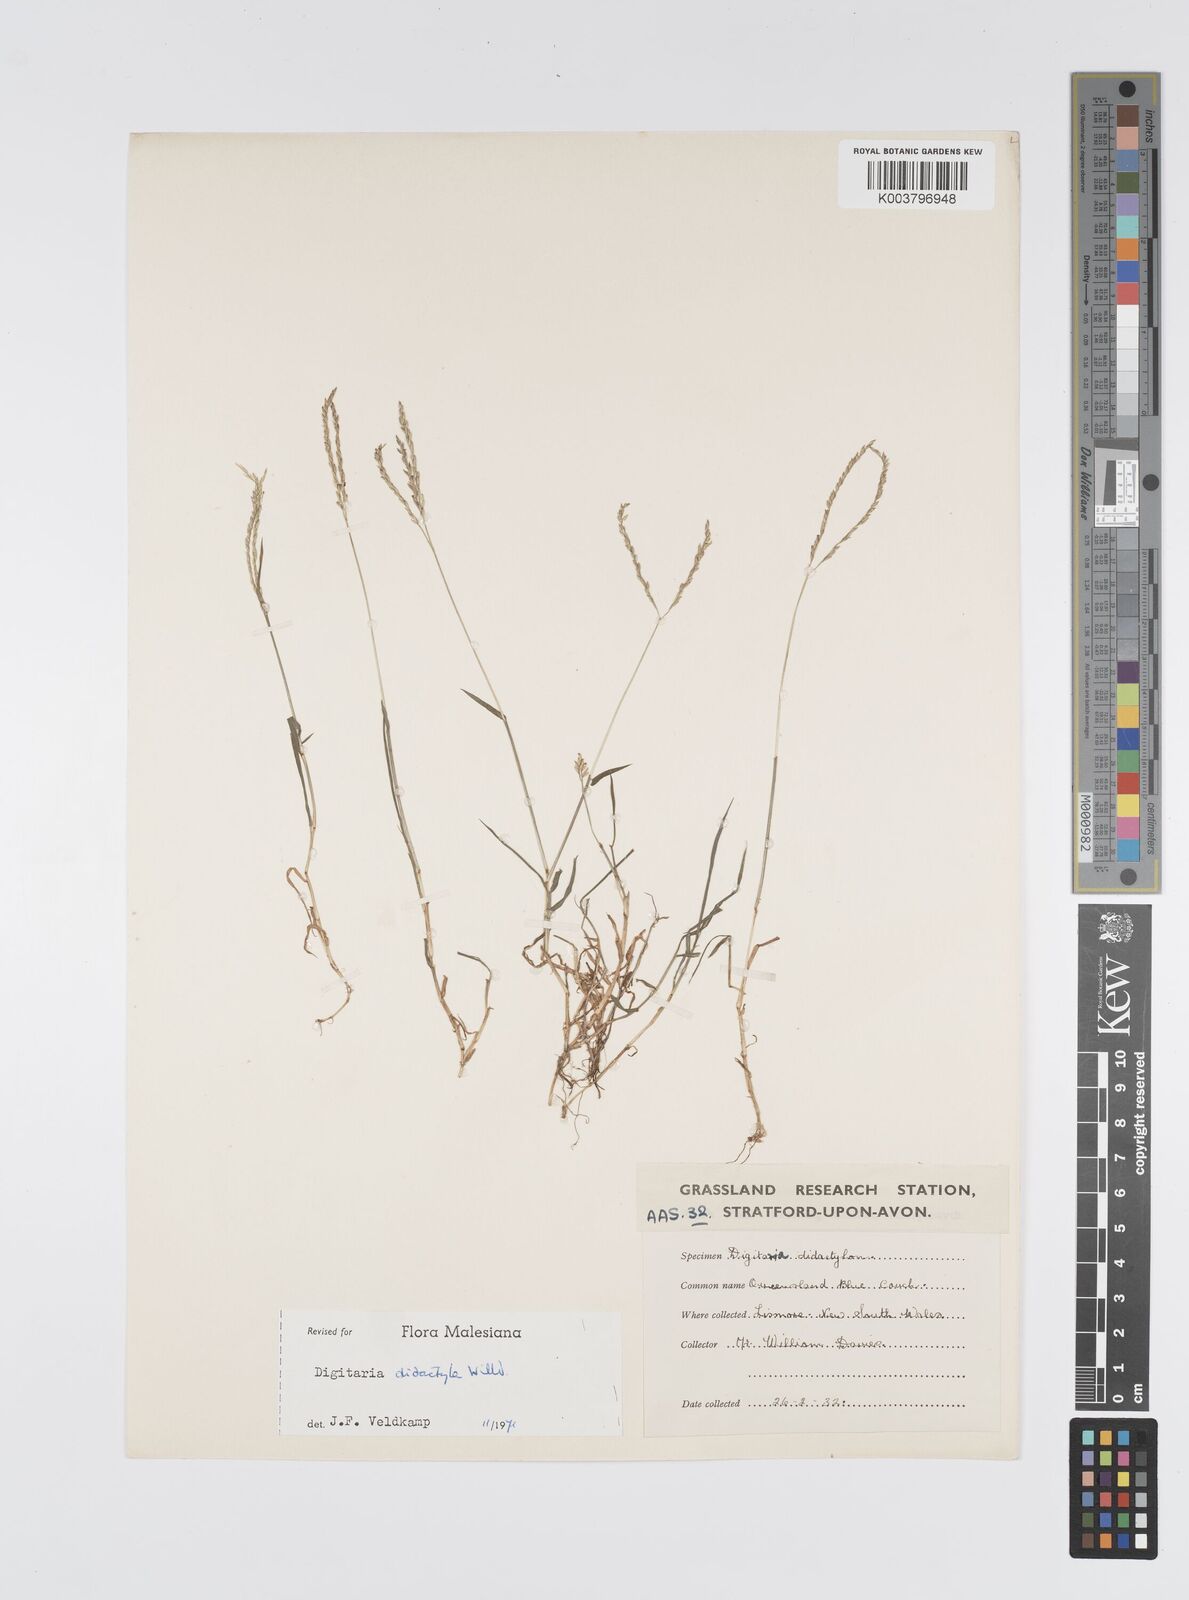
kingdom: Plantae
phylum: Tracheophyta
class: Liliopsida
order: Poales
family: Poaceae
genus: Digitaria
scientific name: Digitaria didactyla
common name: Blue couch
